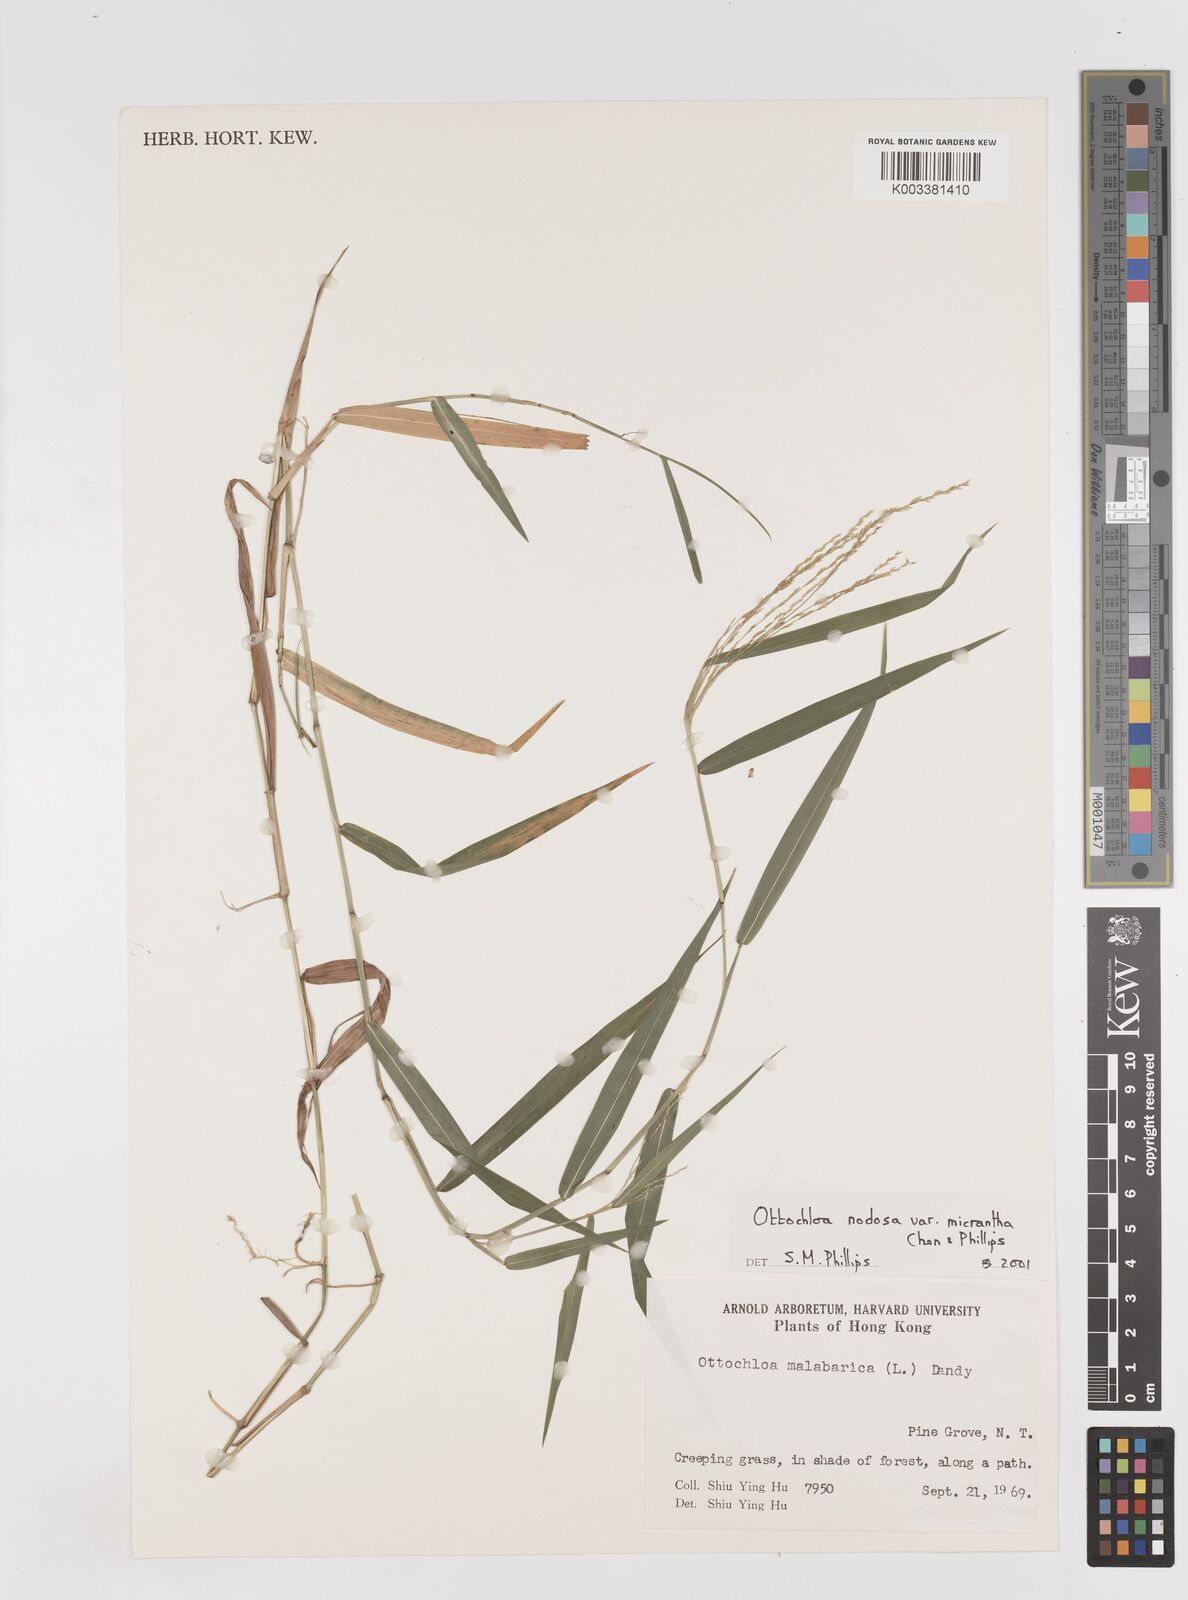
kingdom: Plantae
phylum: Tracheophyta
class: Liliopsida
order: Poales
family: Poaceae
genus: Ottochloa
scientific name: Ottochloa nodosa
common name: Slender-panic grass
